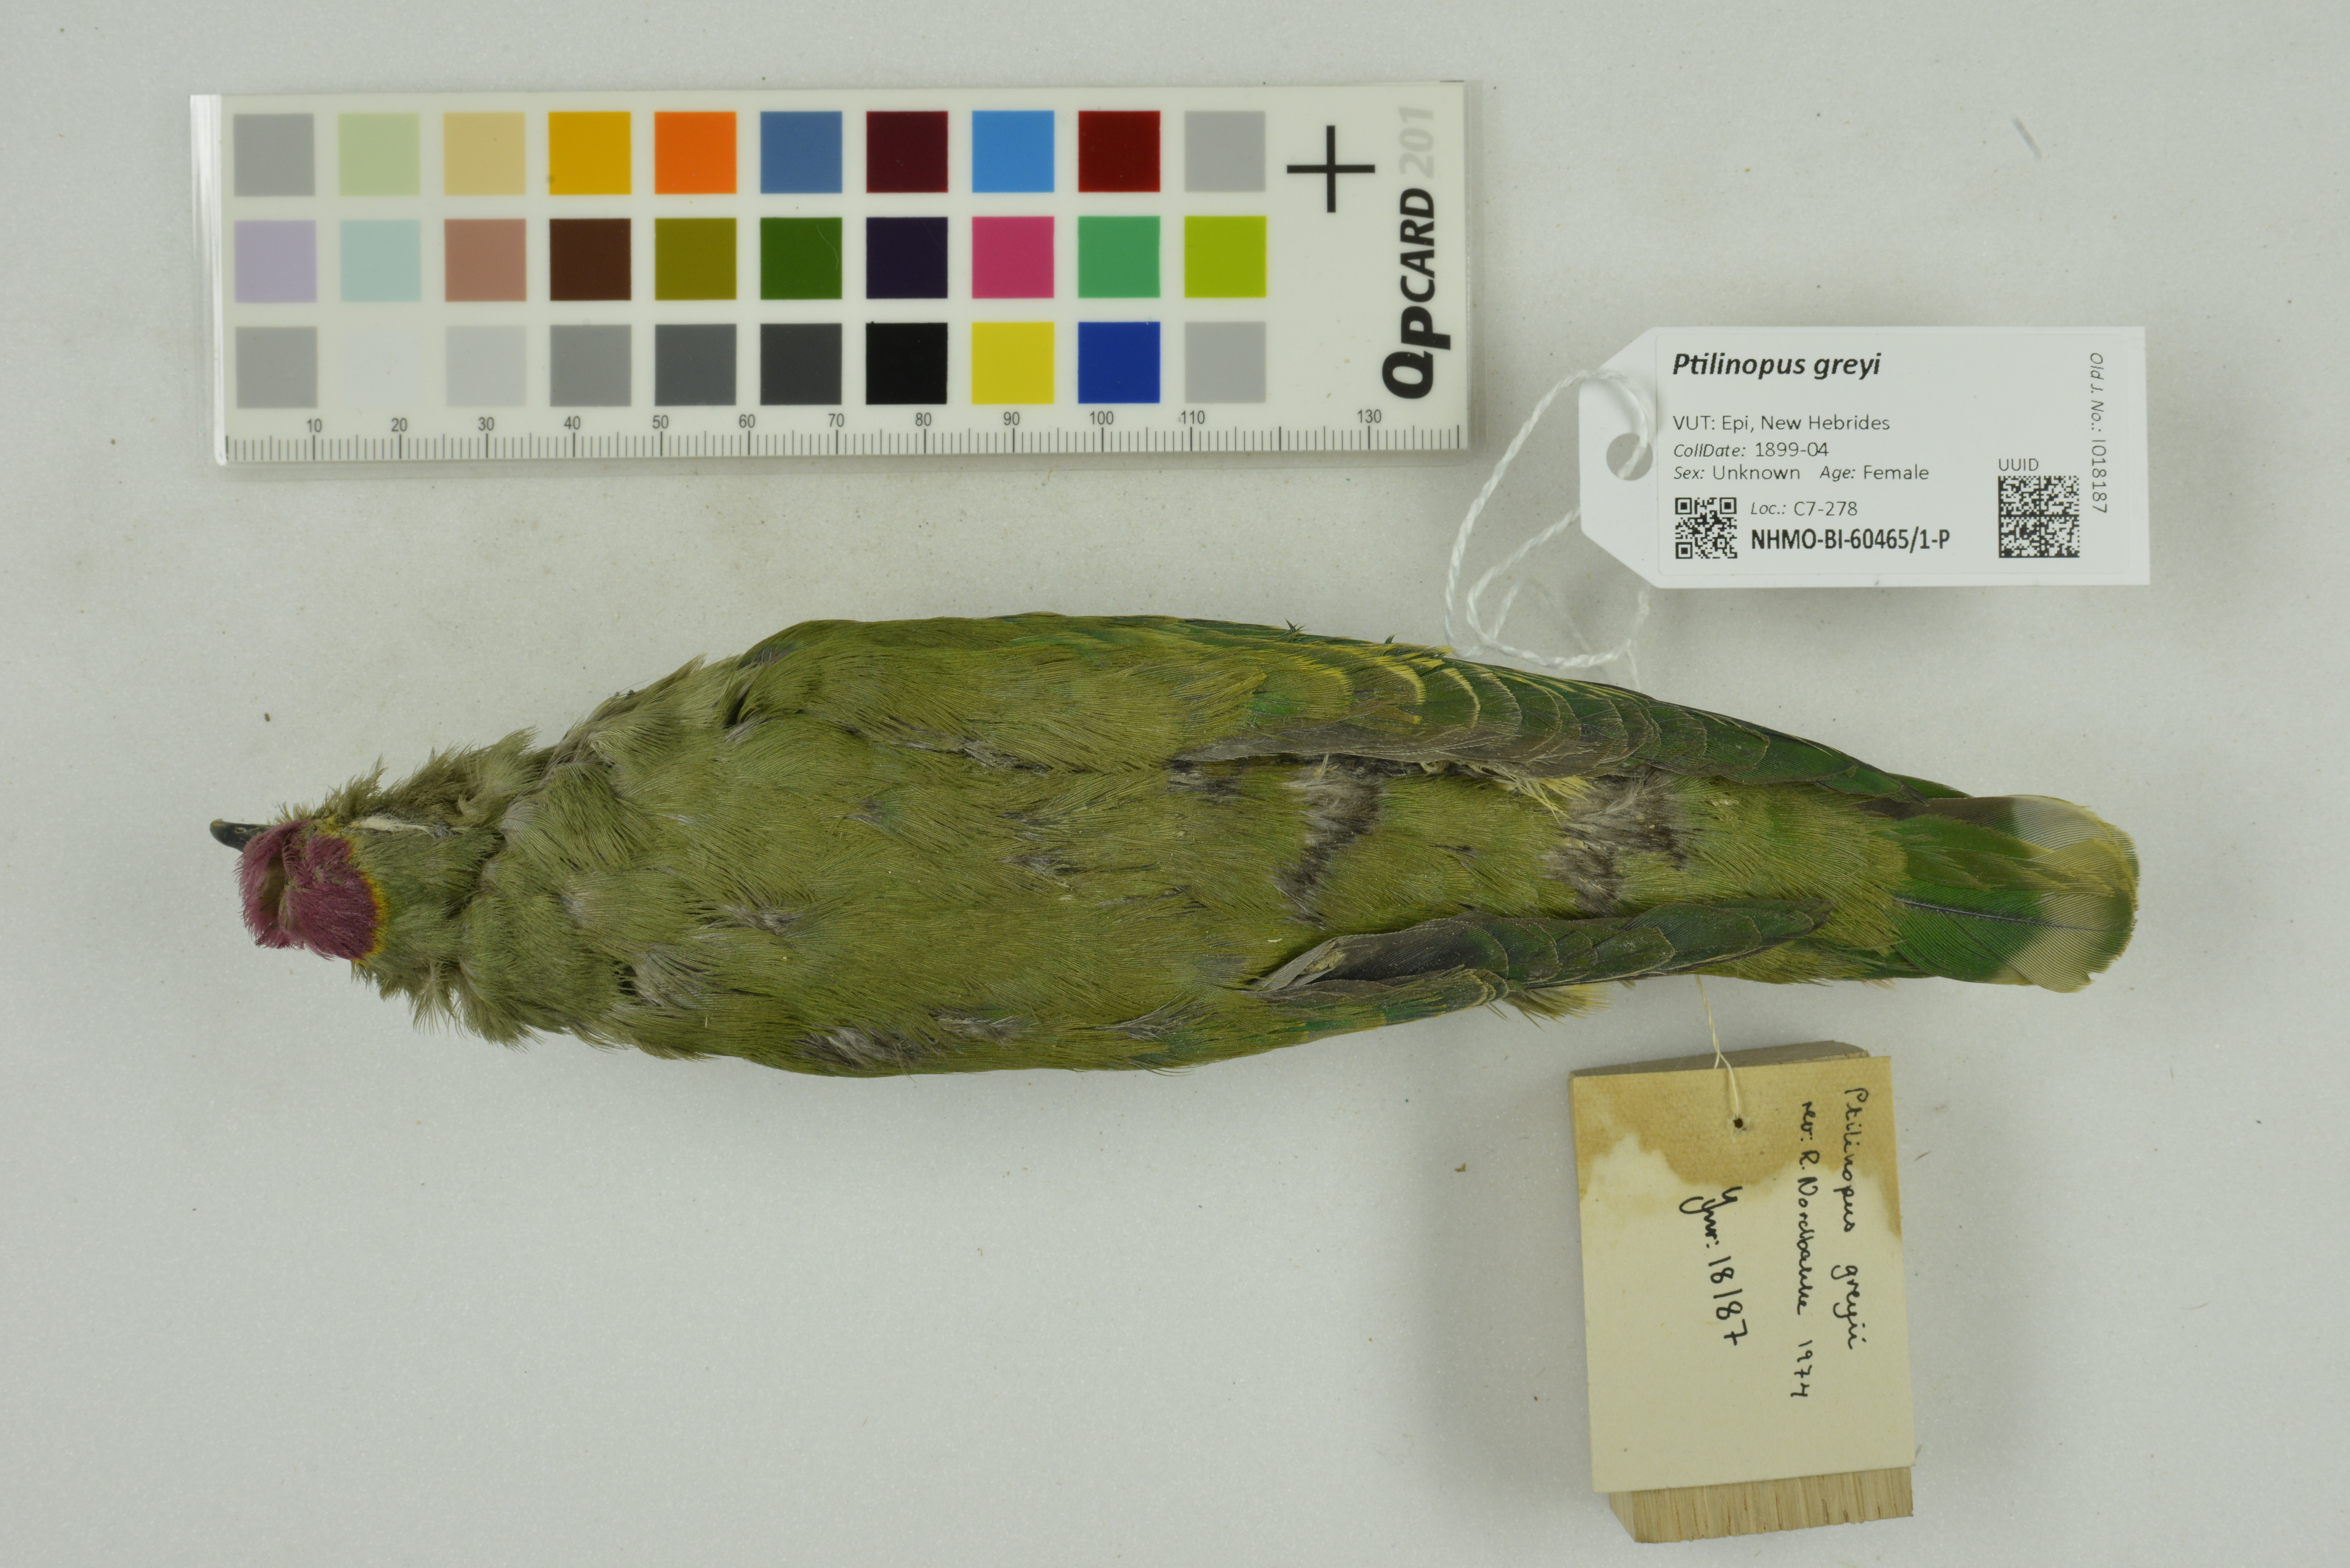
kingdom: Animalia
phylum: Chordata
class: Aves
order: Columbiformes
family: Columbidae
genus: Ptilinopus
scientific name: Ptilinopus greyi
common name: Red-bellied fruit-dove
